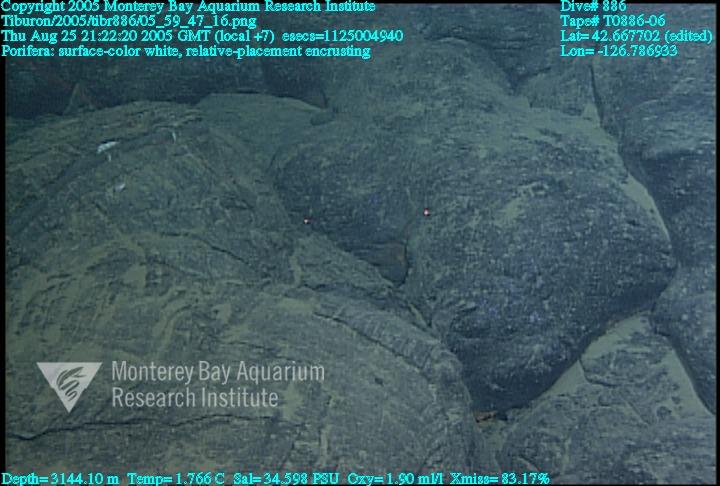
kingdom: Animalia
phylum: Porifera
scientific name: Porifera
